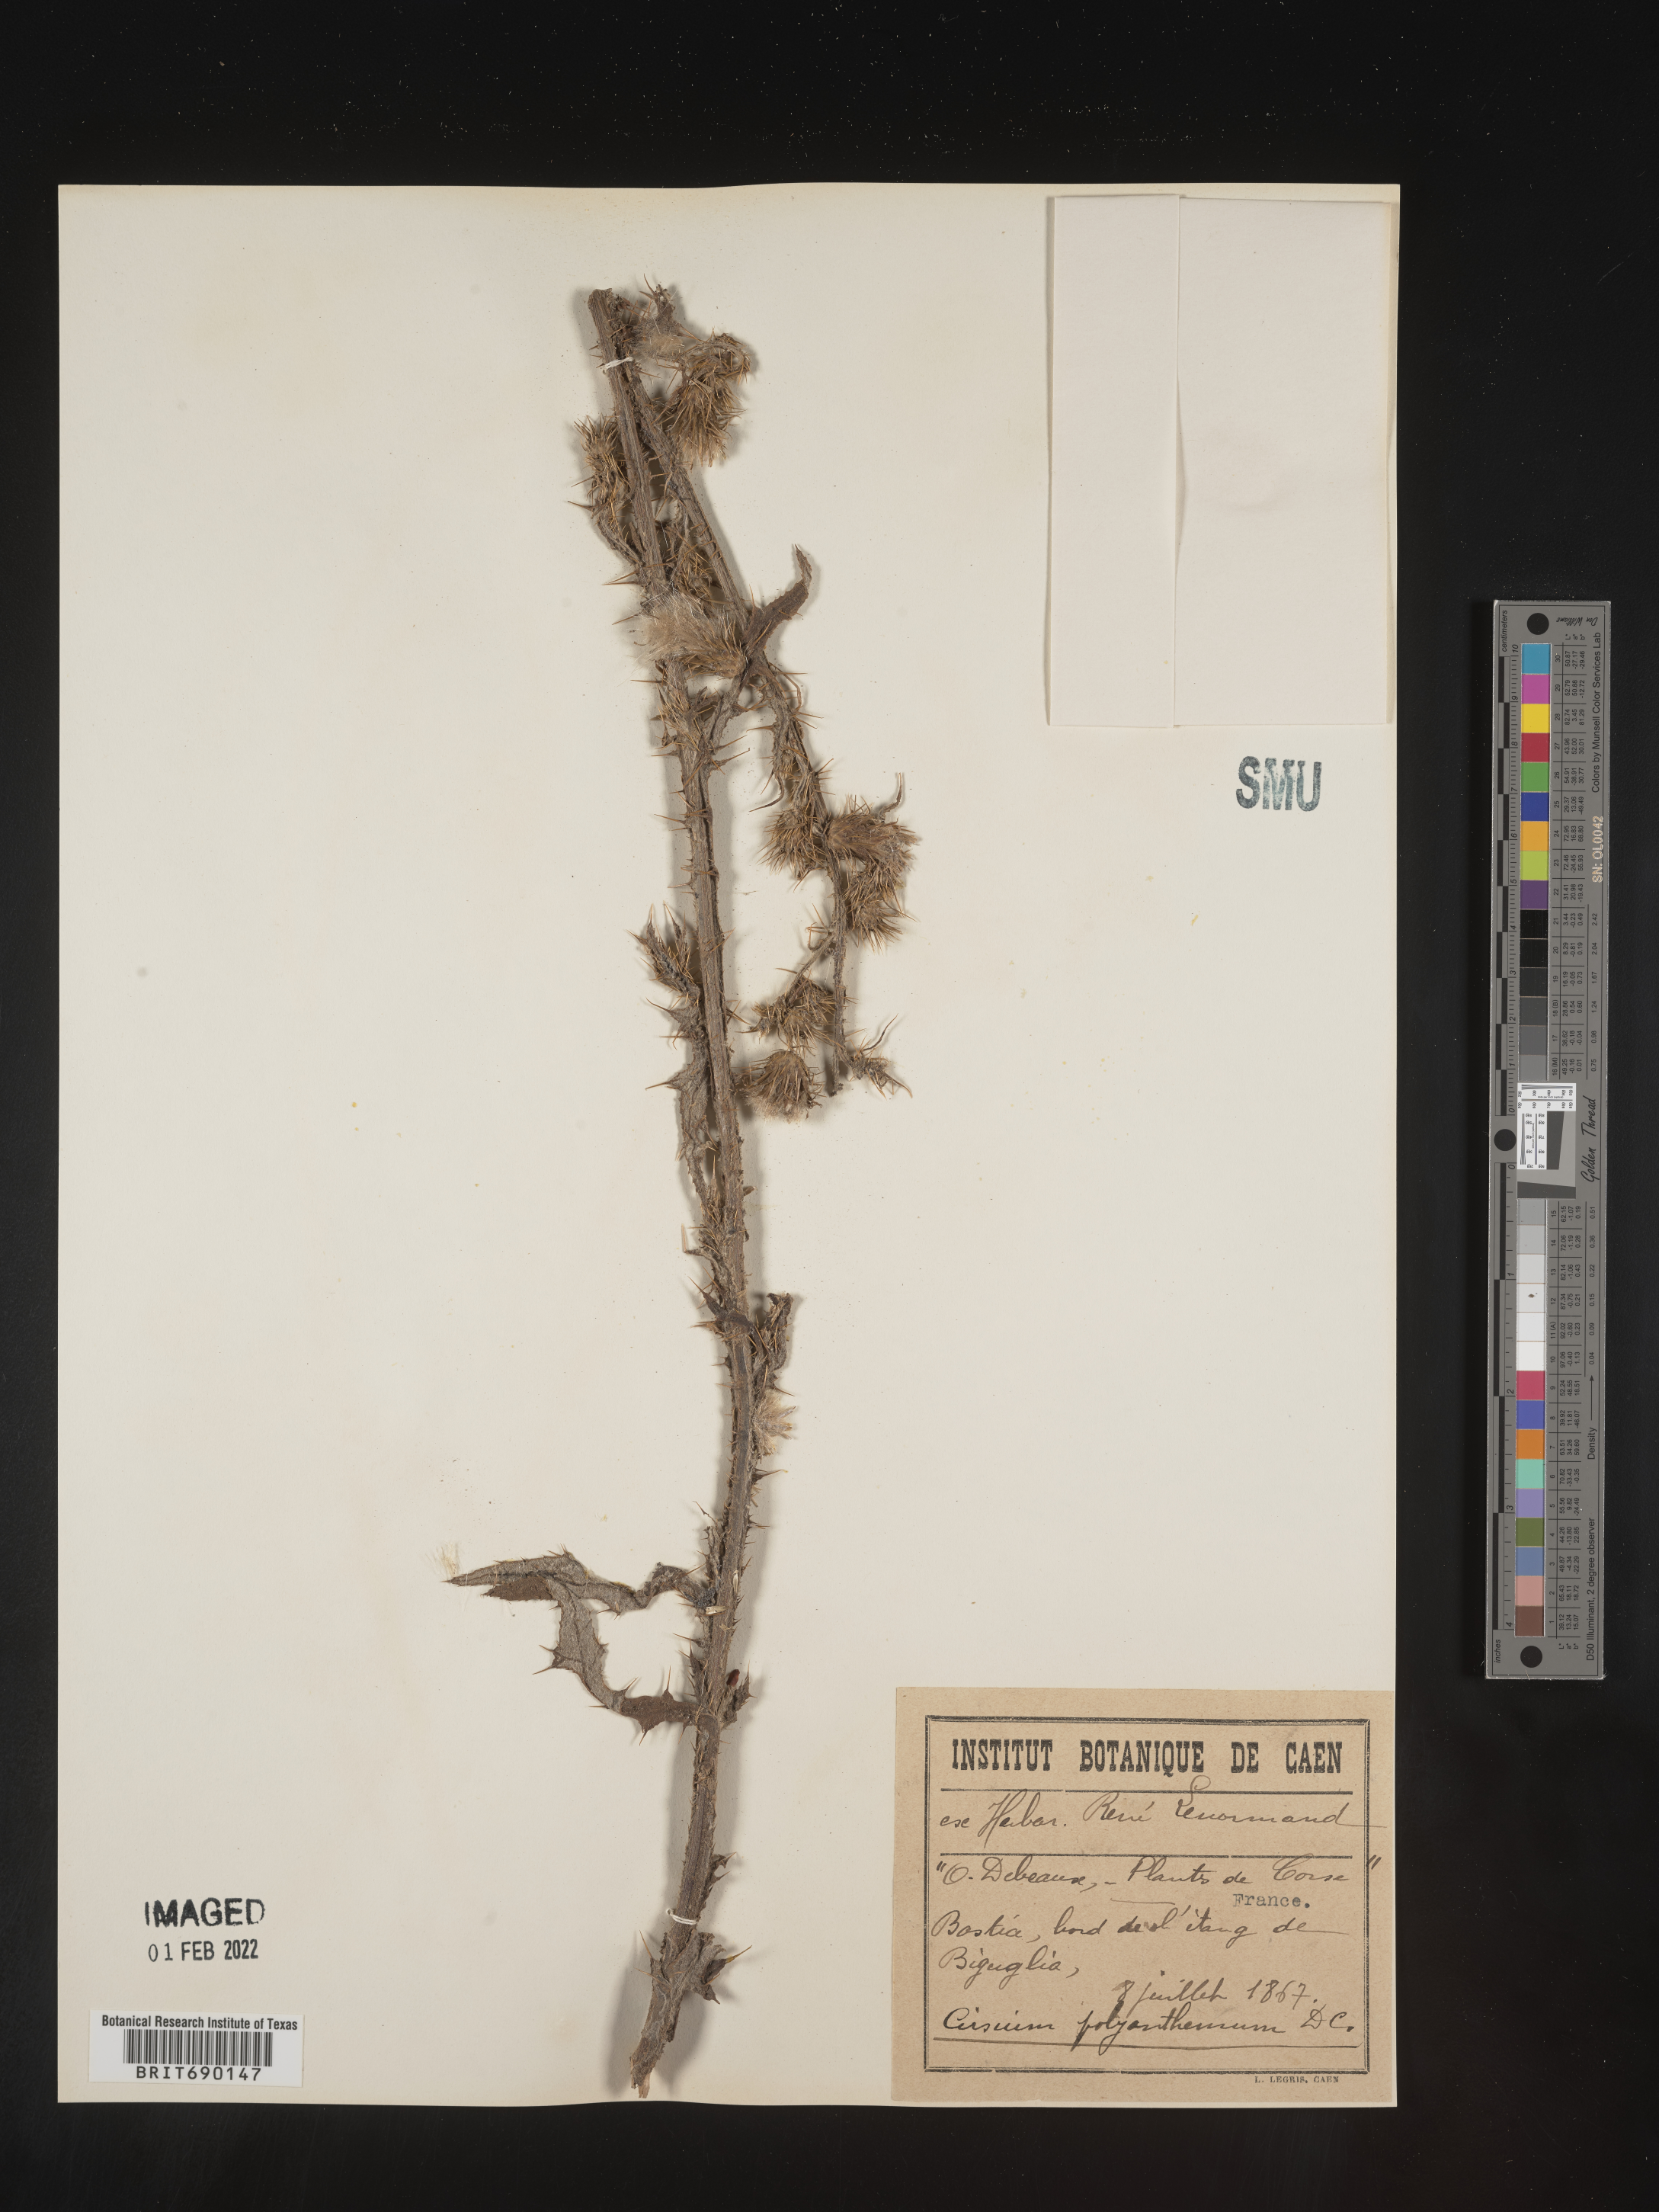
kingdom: Plantae
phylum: Tracheophyta
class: Magnoliopsida
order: Asterales
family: Asteraceae
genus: Cirsium
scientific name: Cirsium
